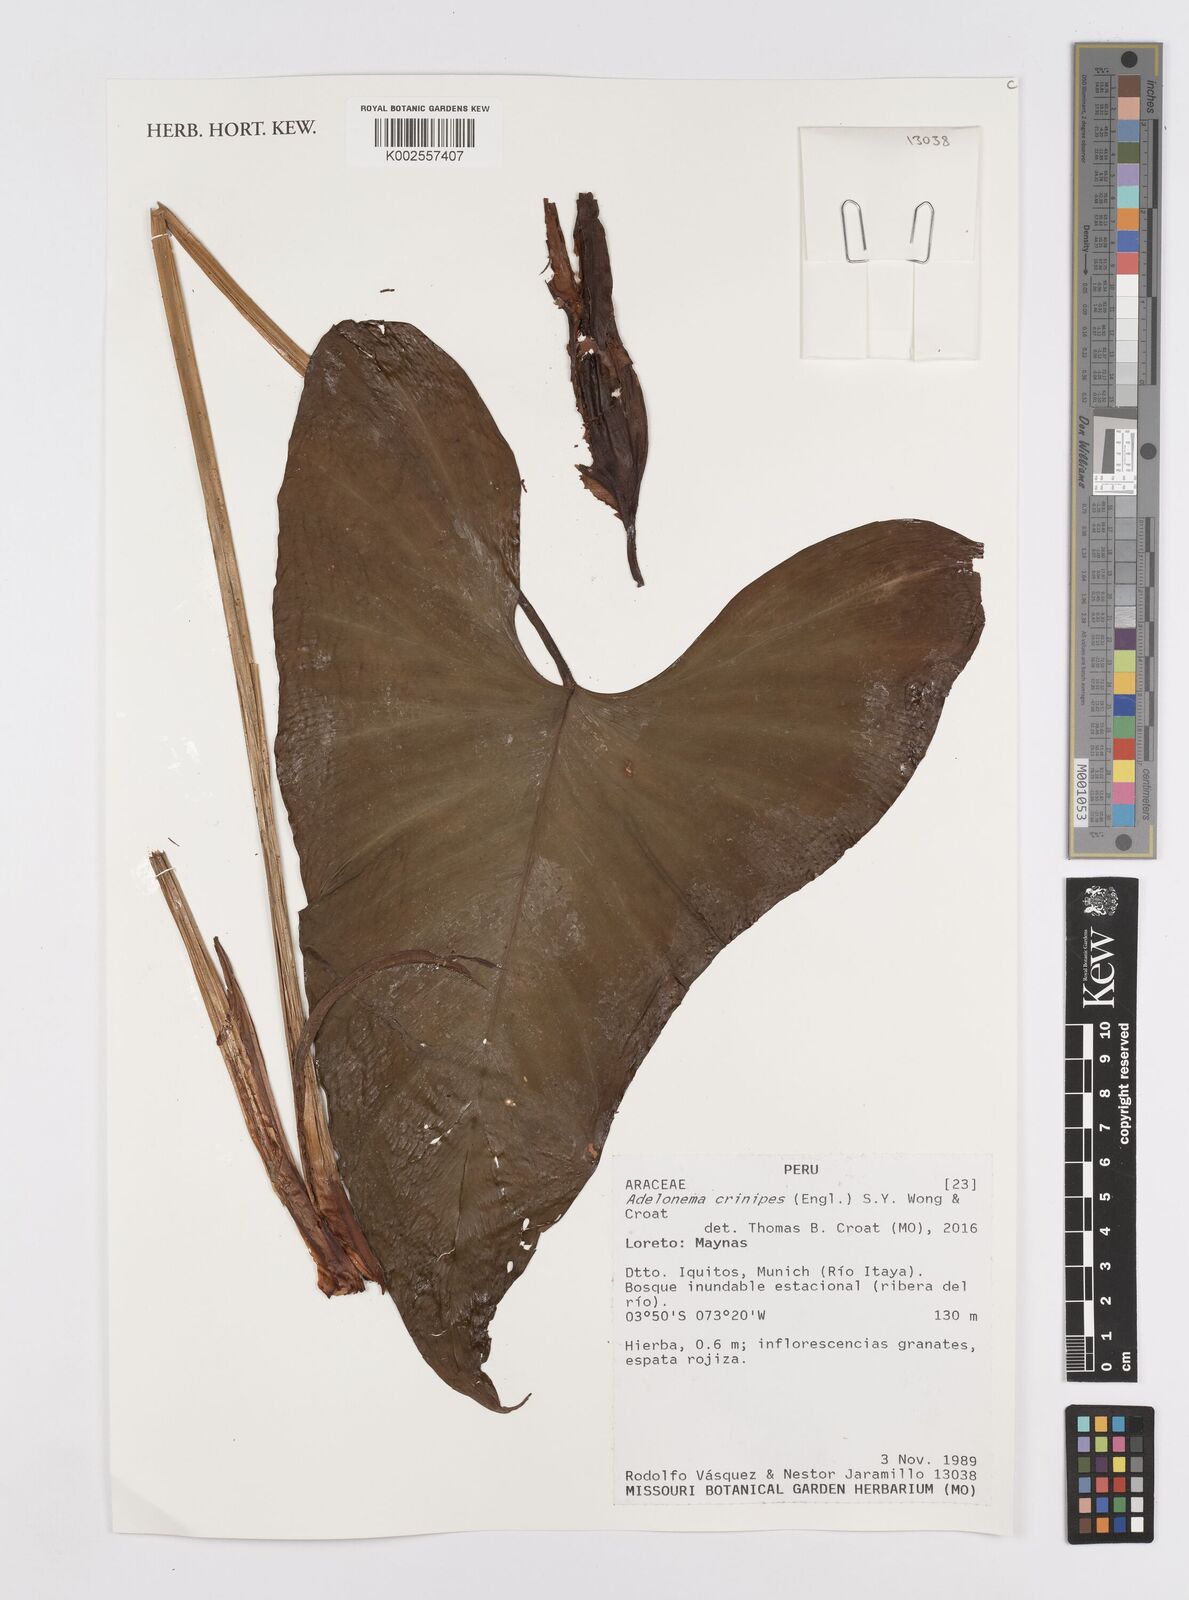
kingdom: Plantae
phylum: Tracheophyta
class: Liliopsida
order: Alismatales
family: Araceae
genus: Adelonema
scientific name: Adelonema crinipes
